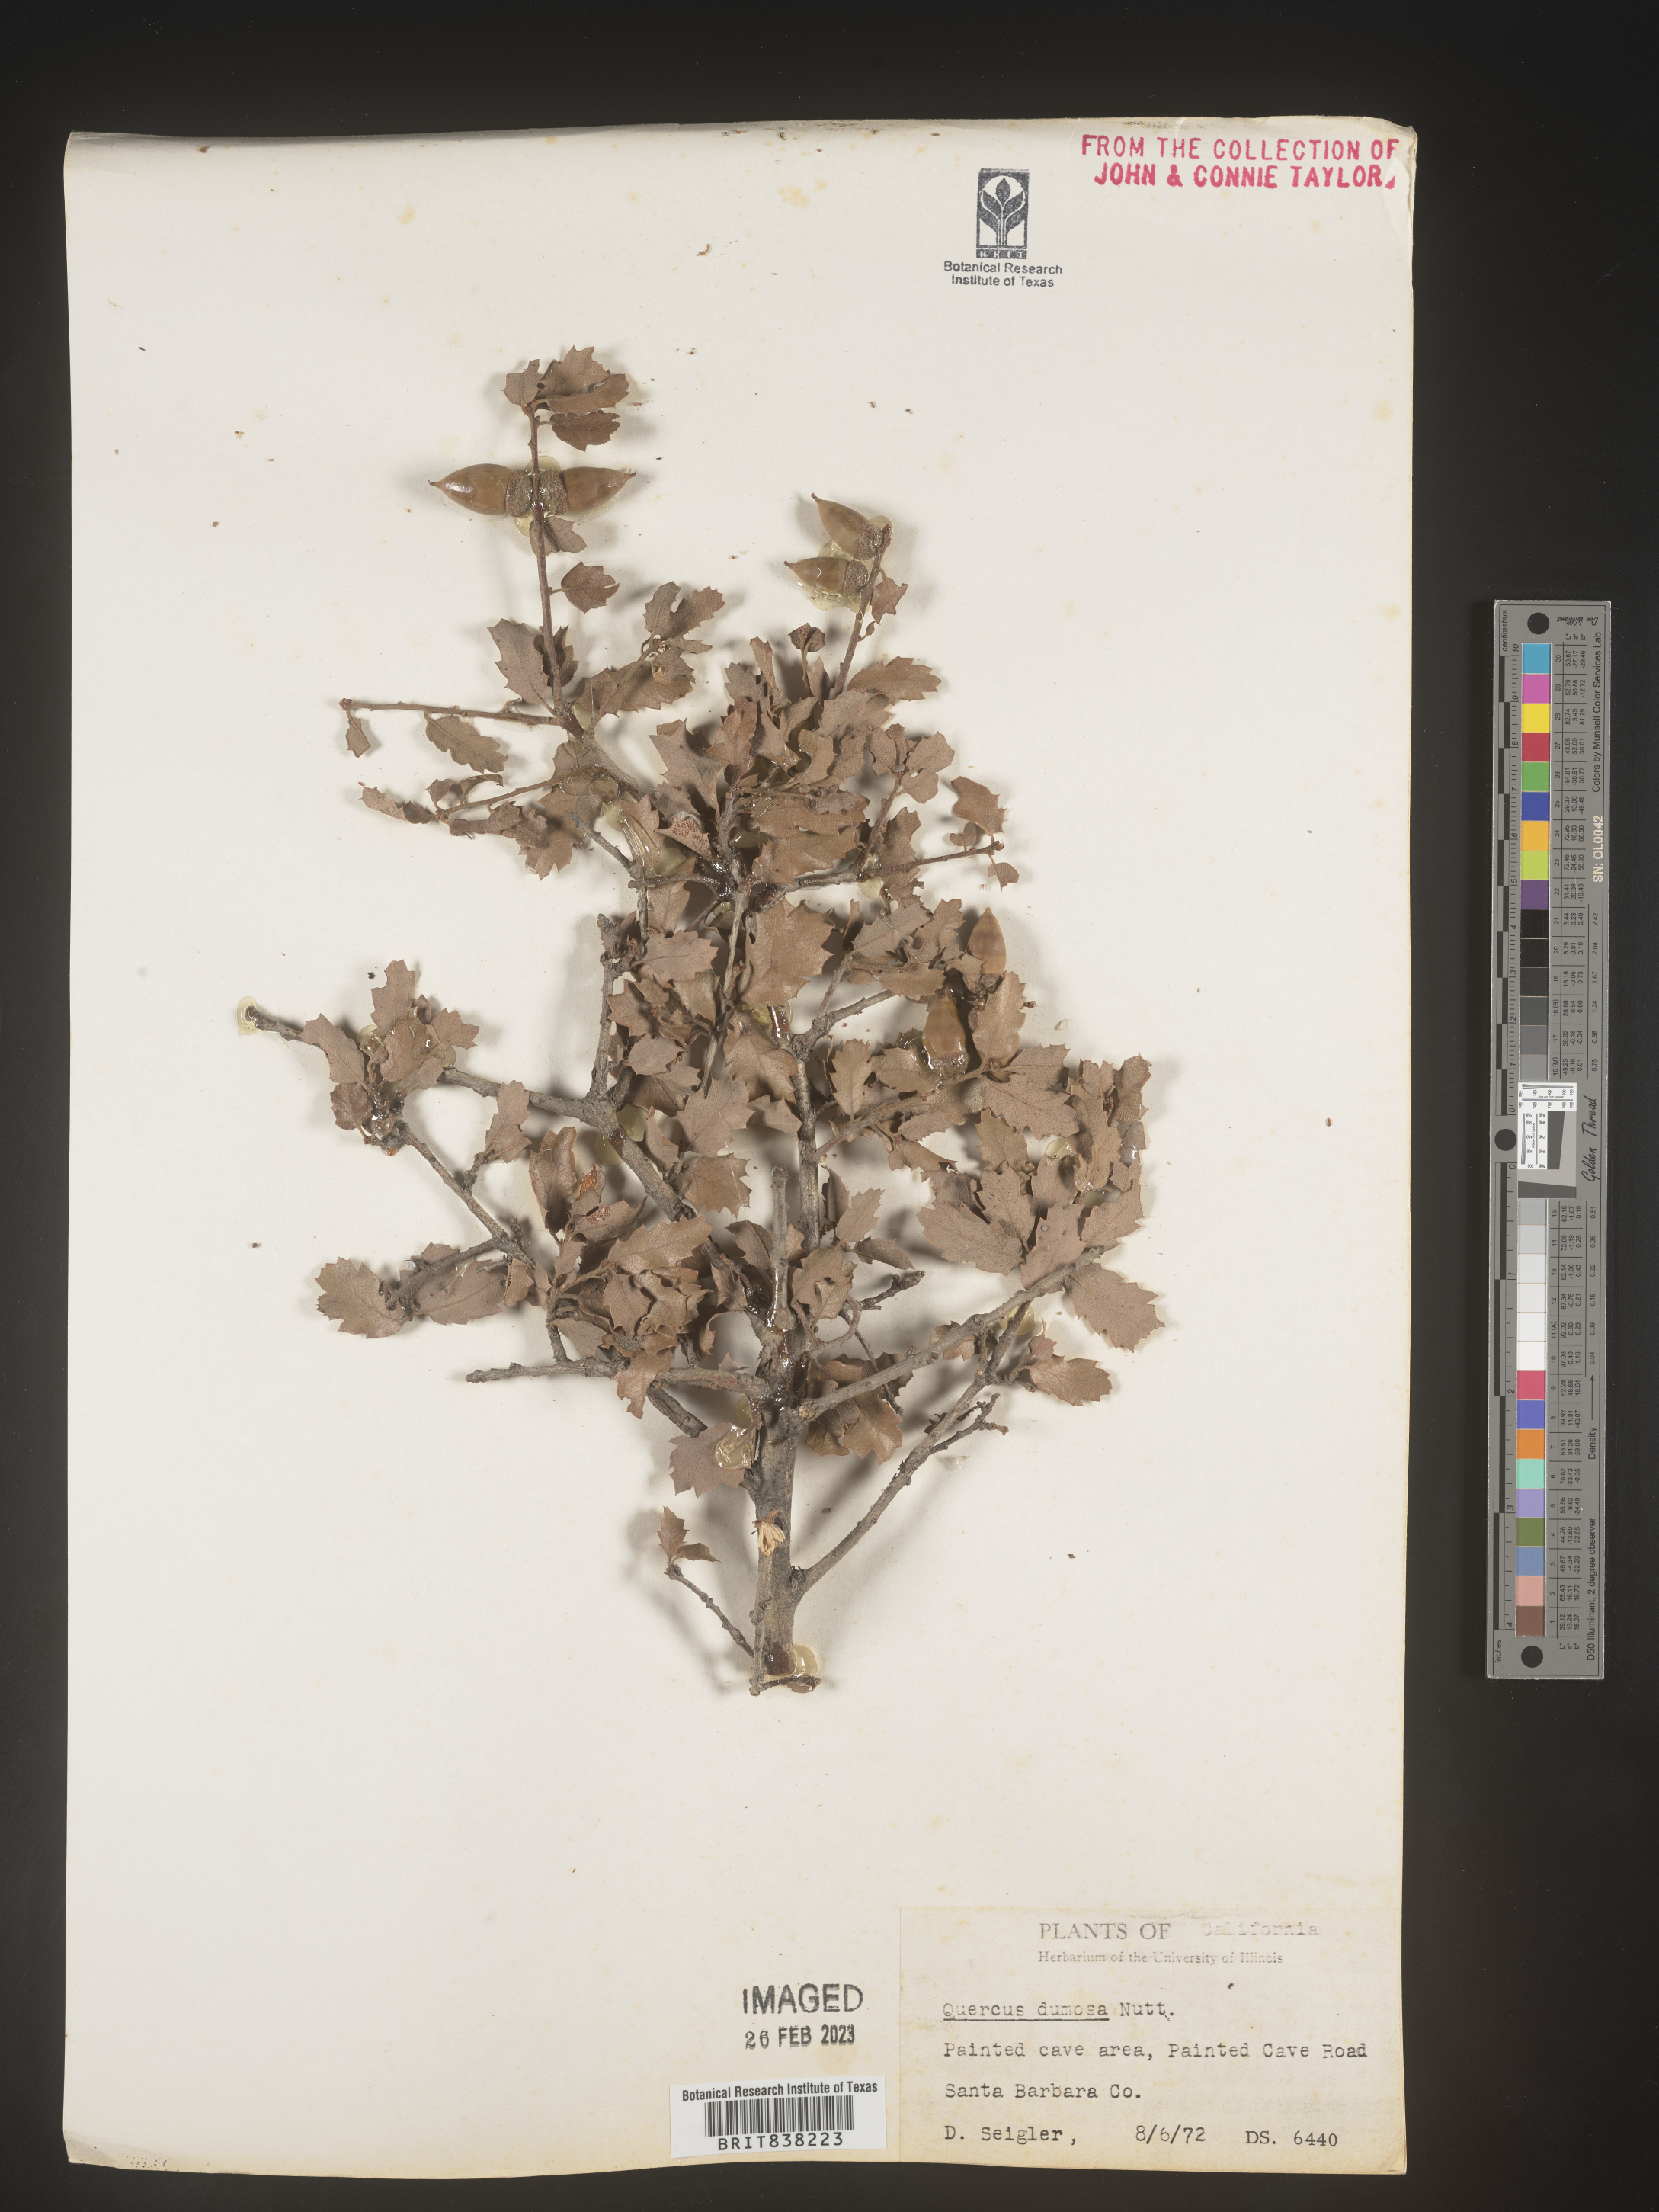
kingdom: Plantae
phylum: Tracheophyta
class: Magnoliopsida
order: Fagales
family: Fagaceae
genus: Quercus
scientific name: Quercus
